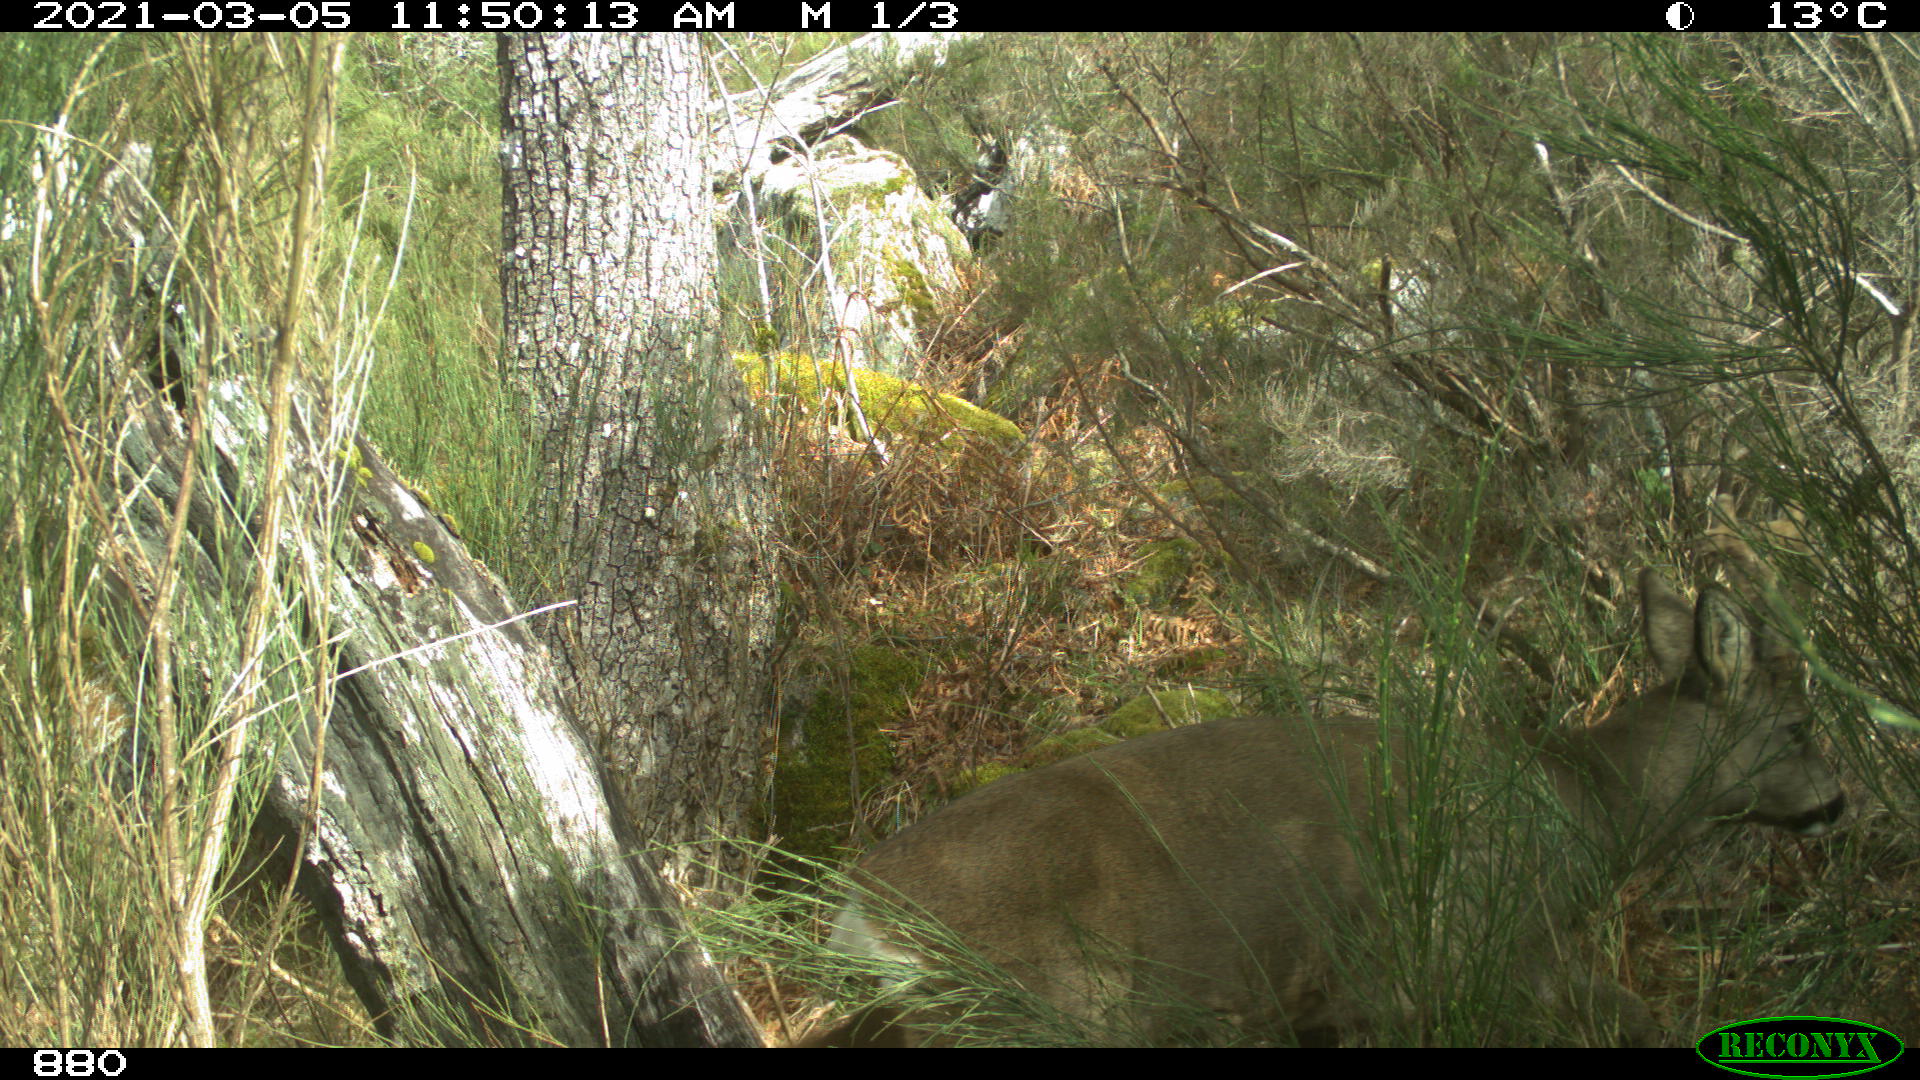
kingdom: Animalia
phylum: Chordata
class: Mammalia
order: Artiodactyla
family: Cervidae
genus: Capreolus
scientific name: Capreolus capreolus
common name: Western roe deer
